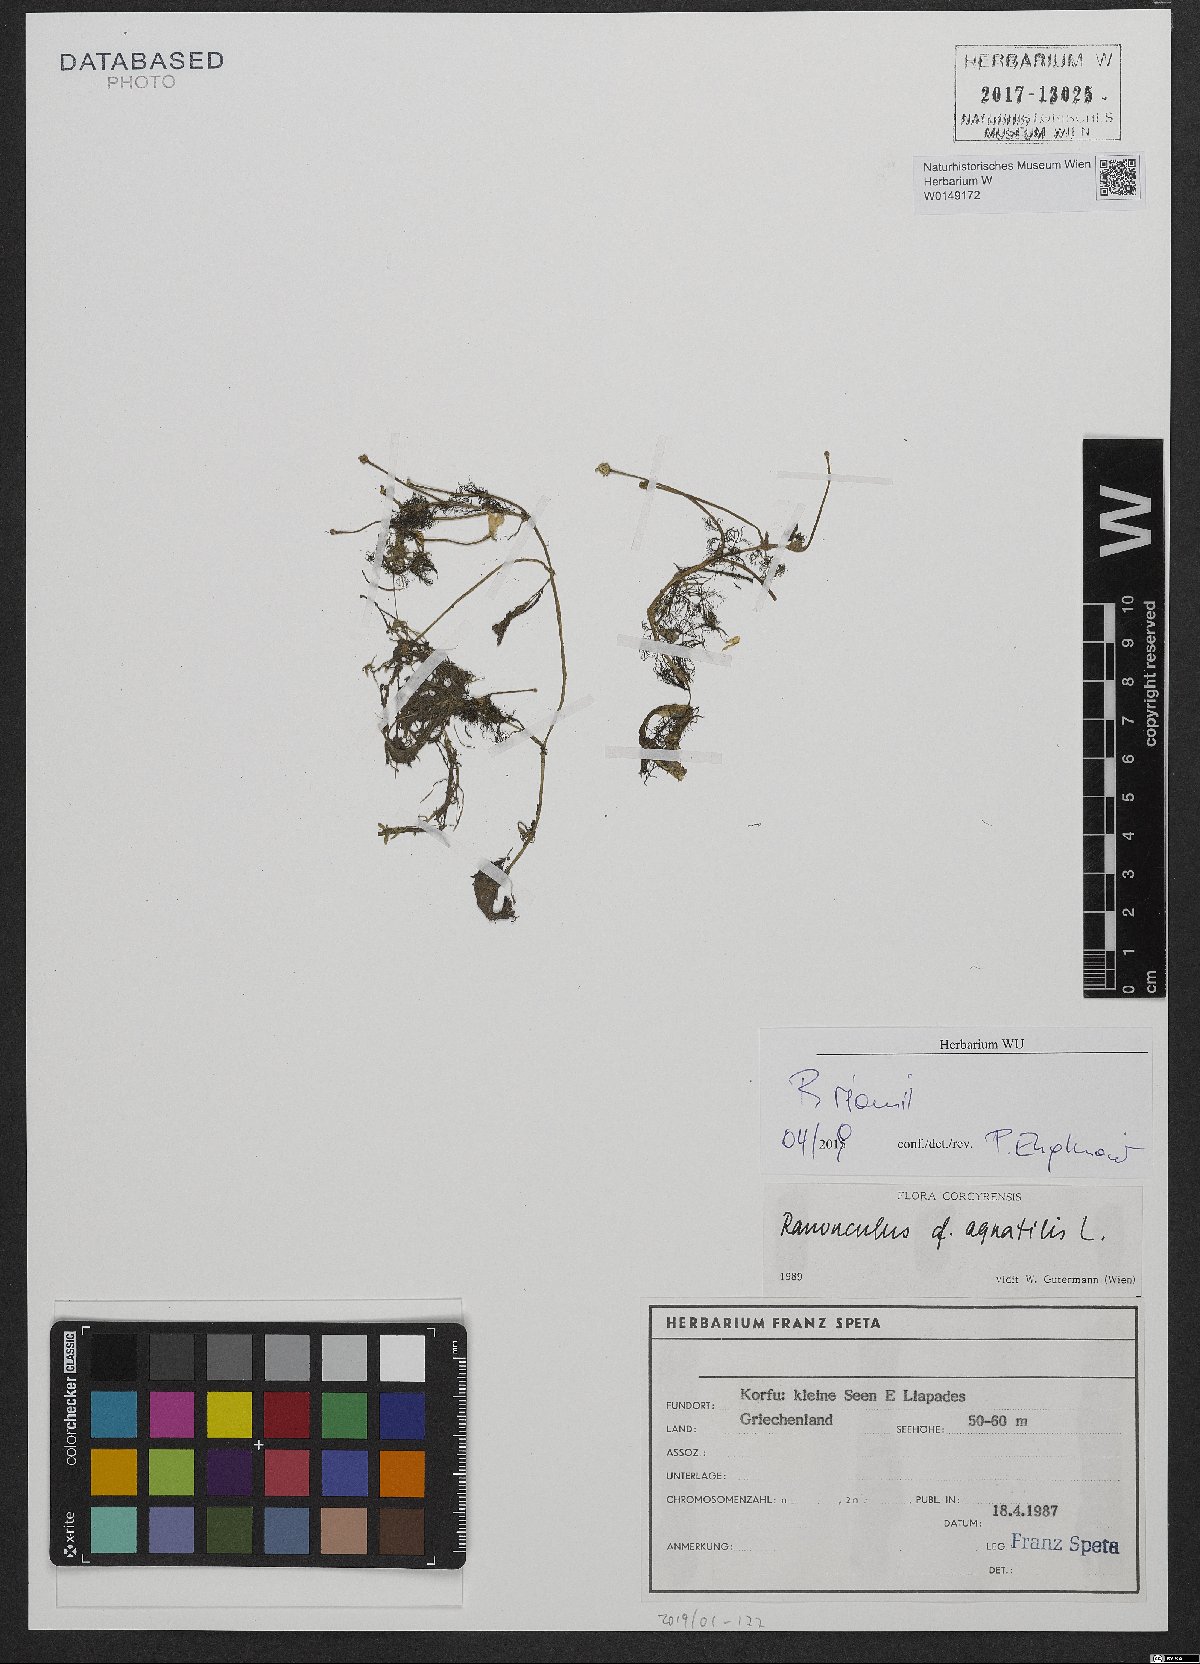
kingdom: Plantae
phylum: Tracheophyta
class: Magnoliopsida
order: Ranunculales
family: Ranunculaceae
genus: Ranunculus
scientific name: Ranunculus rionii
